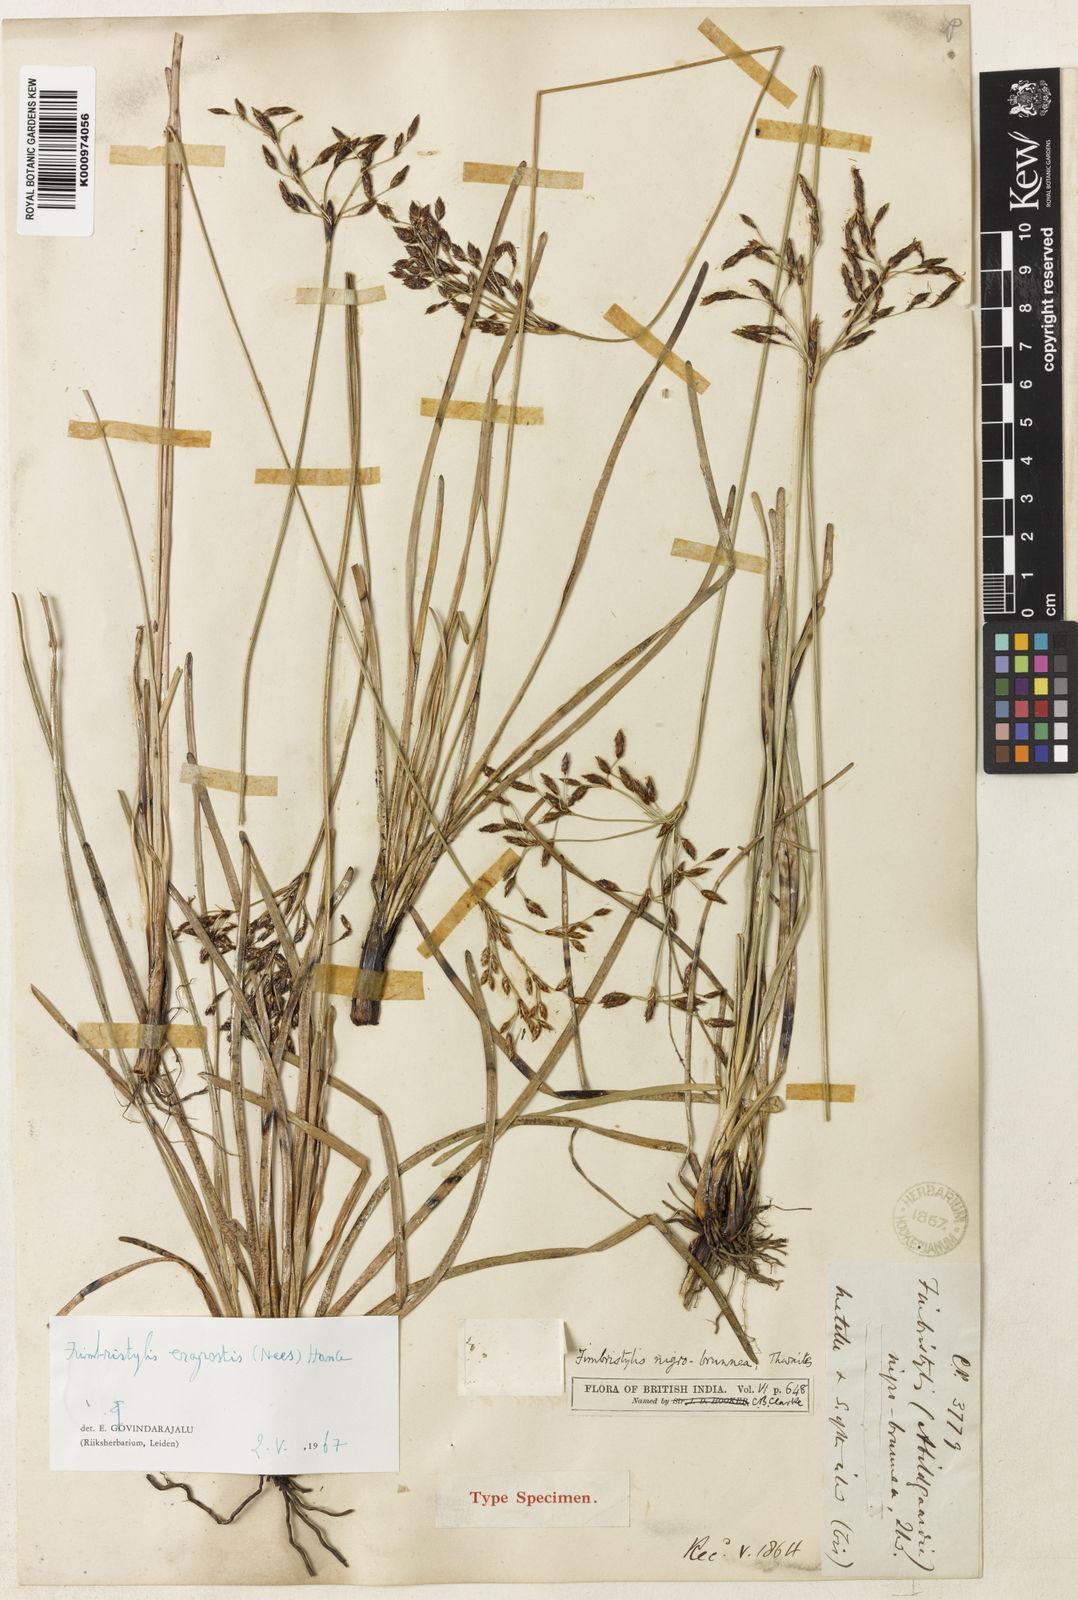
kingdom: Plantae
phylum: Tracheophyta
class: Liliopsida
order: Poales
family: Cyperaceae
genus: Fimbristylis
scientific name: Fimbristylis eragrostis
